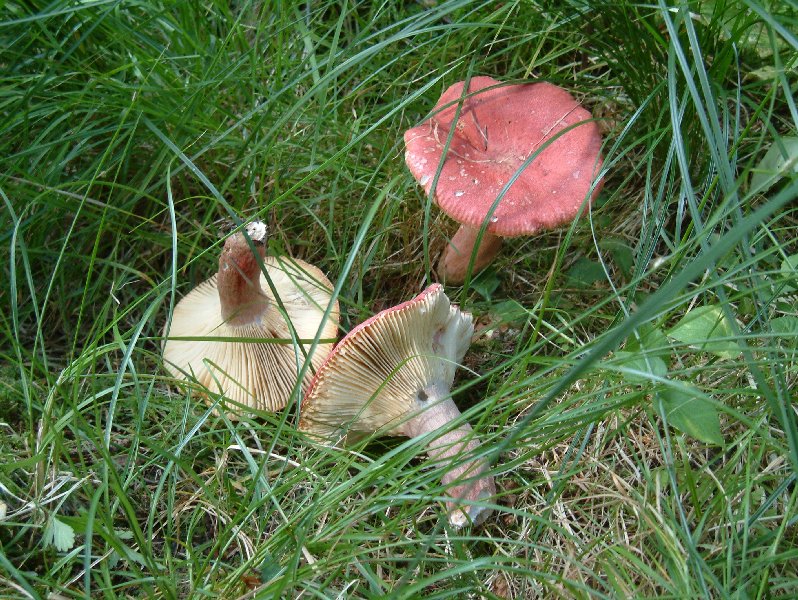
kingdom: Fungi
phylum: Basidiomycota
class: Agaricomycetes
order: Russulales
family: Russulaceae
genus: Russula
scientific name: Russula paludosa
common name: prægtig skørhat
